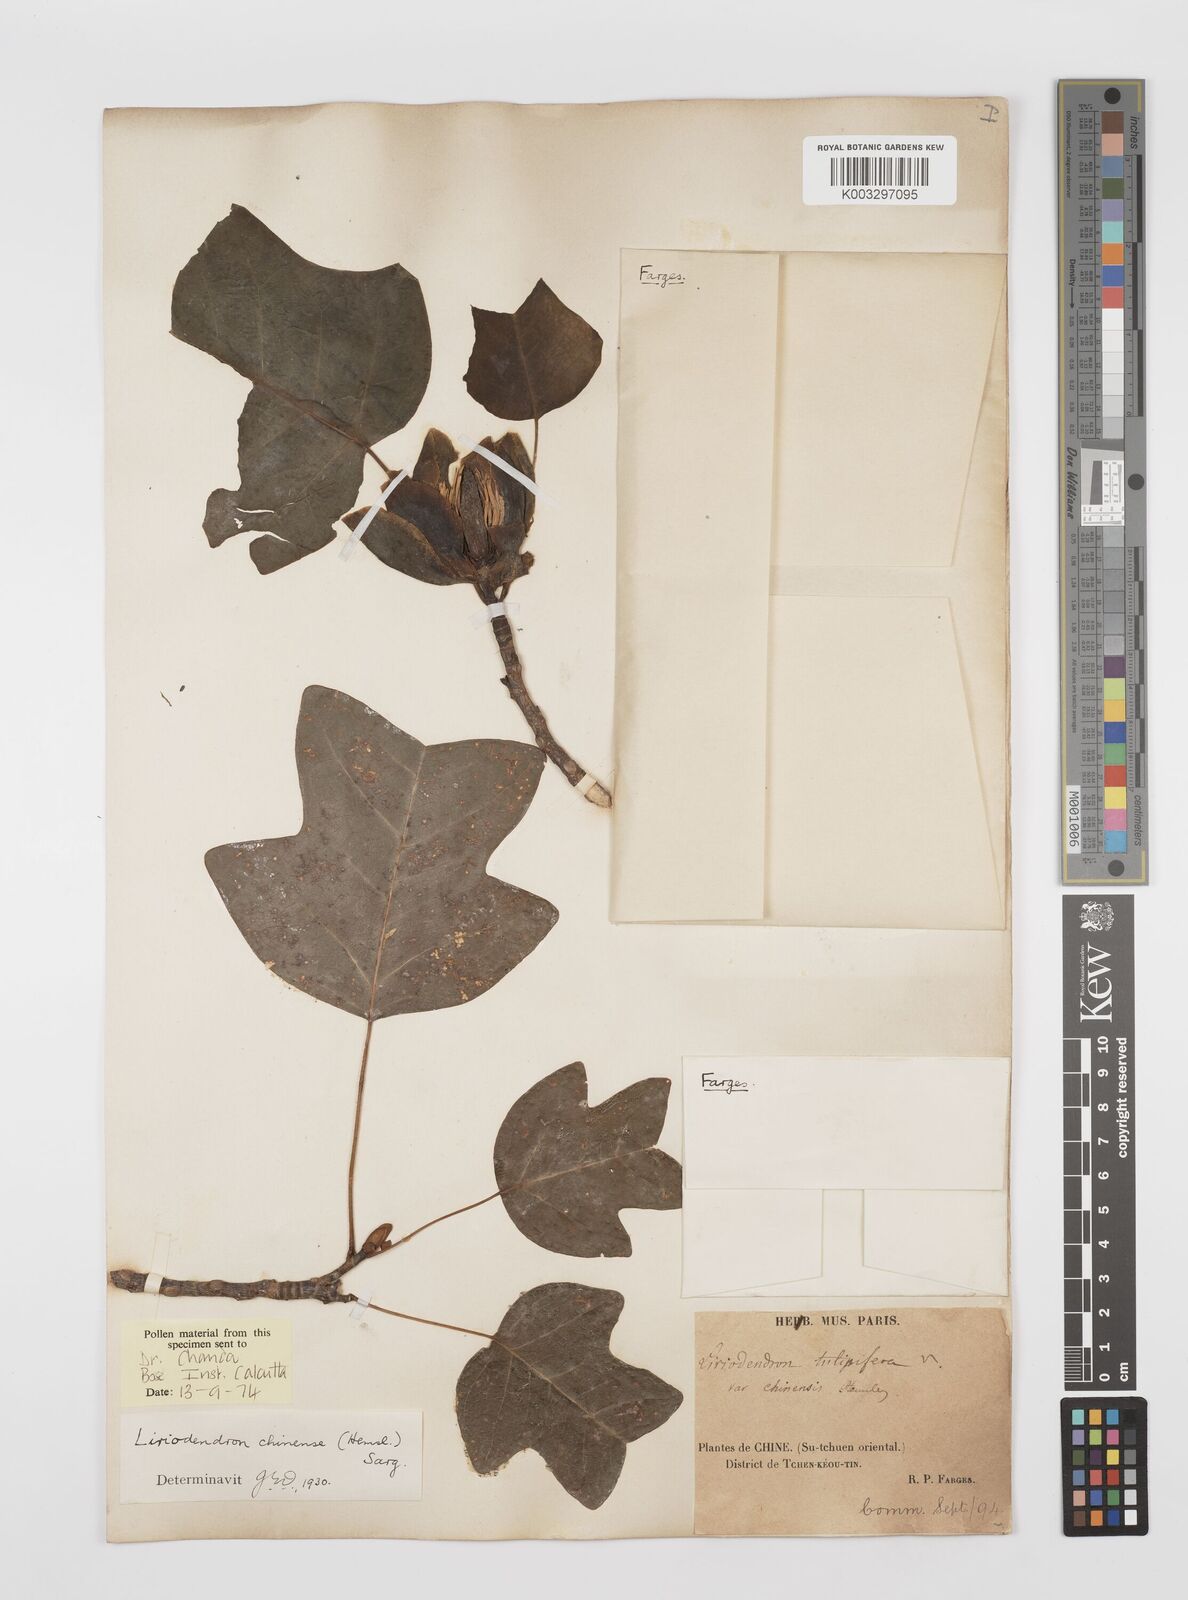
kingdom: Plantae
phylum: Tracheophyta
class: Magnoliopsida
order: Magnoliales
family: Magnoliaceae
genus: Liriodendron
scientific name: Liriodendron chinense
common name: Chinese tuliptree
